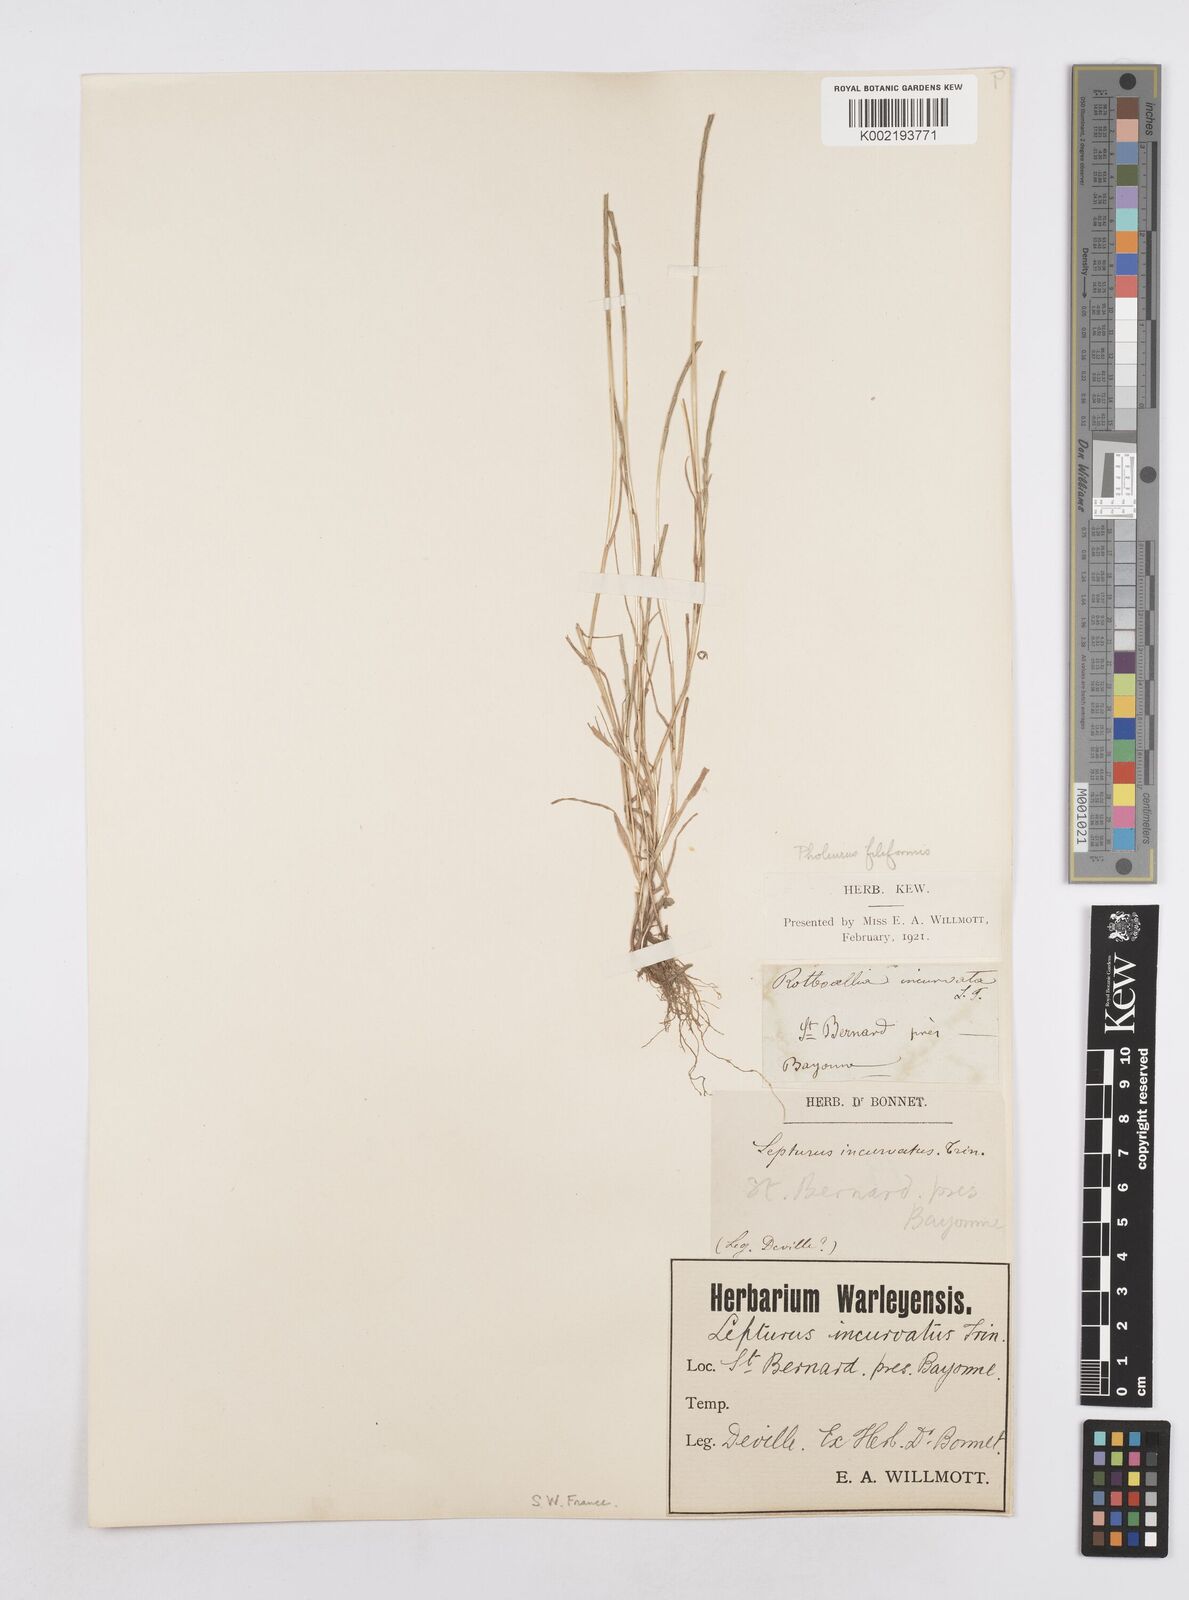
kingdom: Plantae
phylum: Tracheophyta
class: Liliopsida
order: Poales
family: Poaceae
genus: Parapholis
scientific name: Parapholis strigosa
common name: Hard-grass
